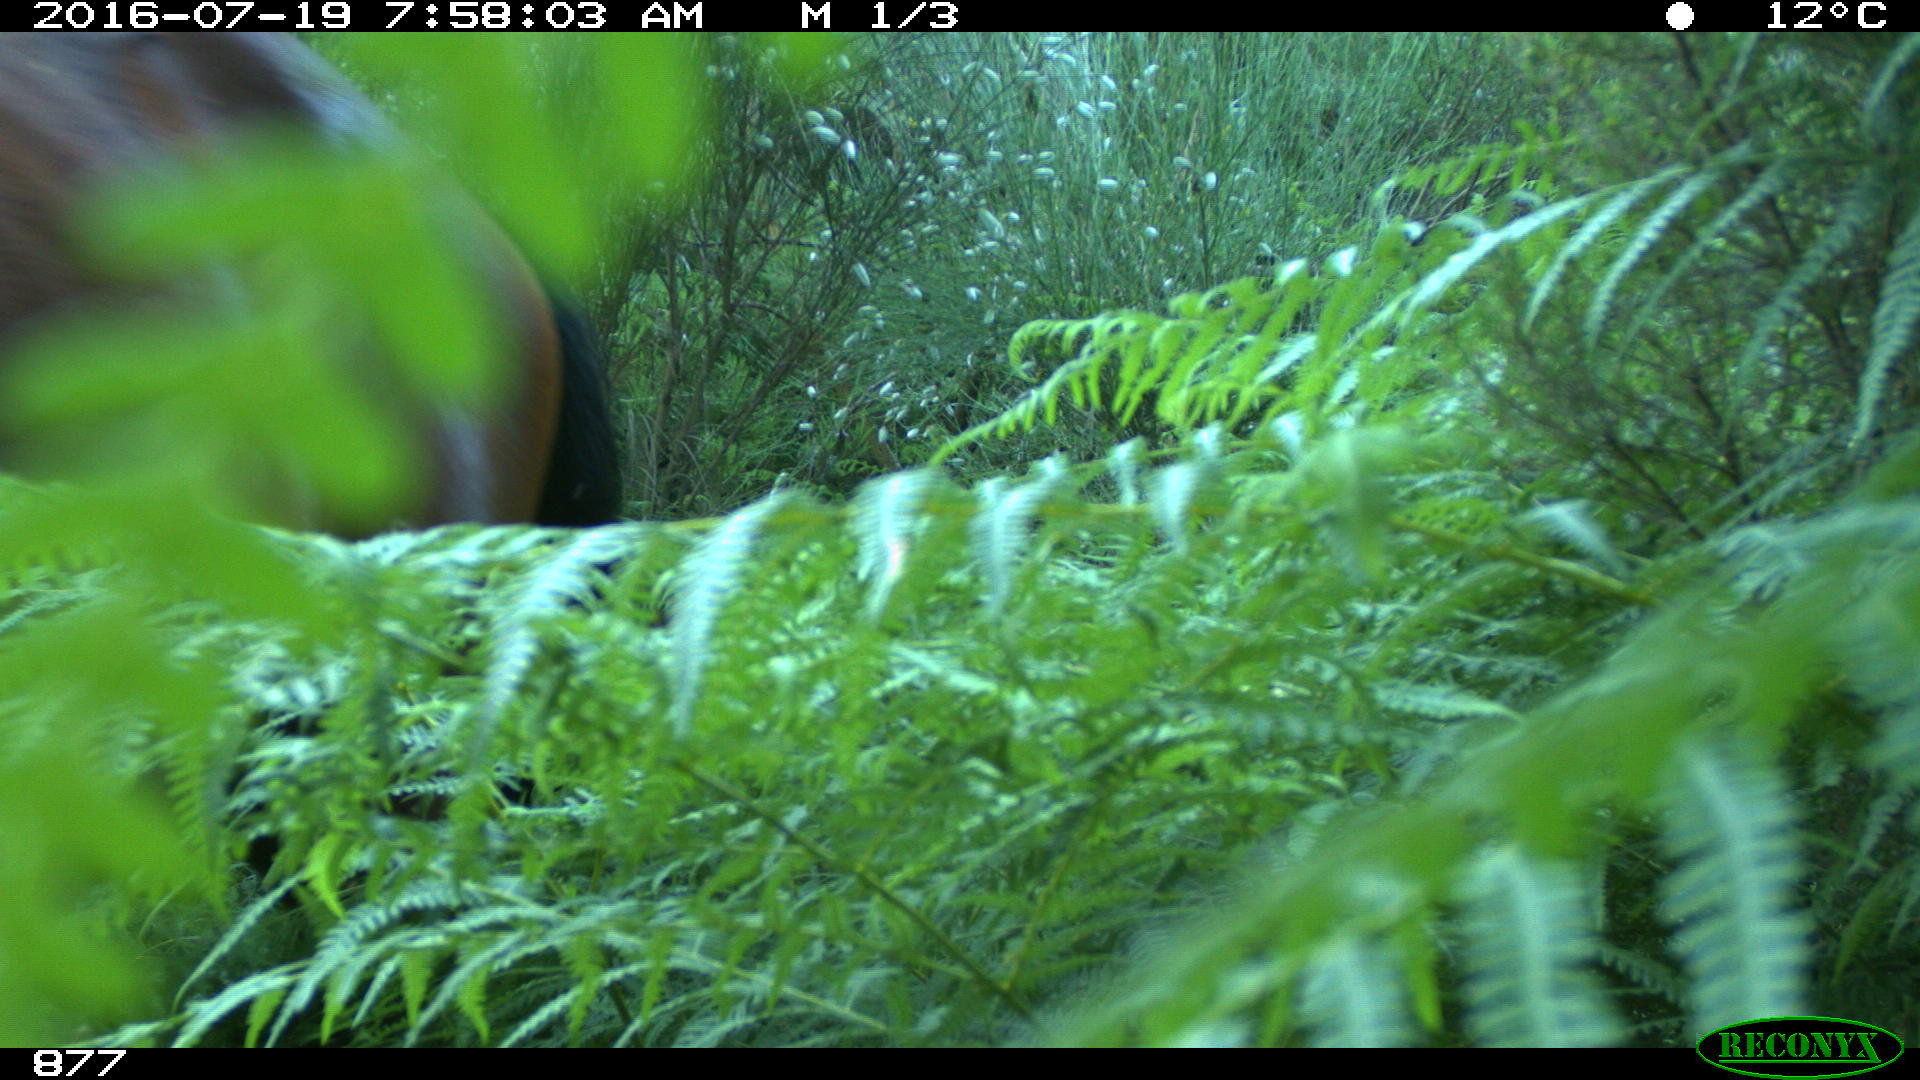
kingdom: Animalia
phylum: Chordata
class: Mammalia
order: Perissodactyla
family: Equidae
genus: Equus
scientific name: Equus caballus
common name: Horse
